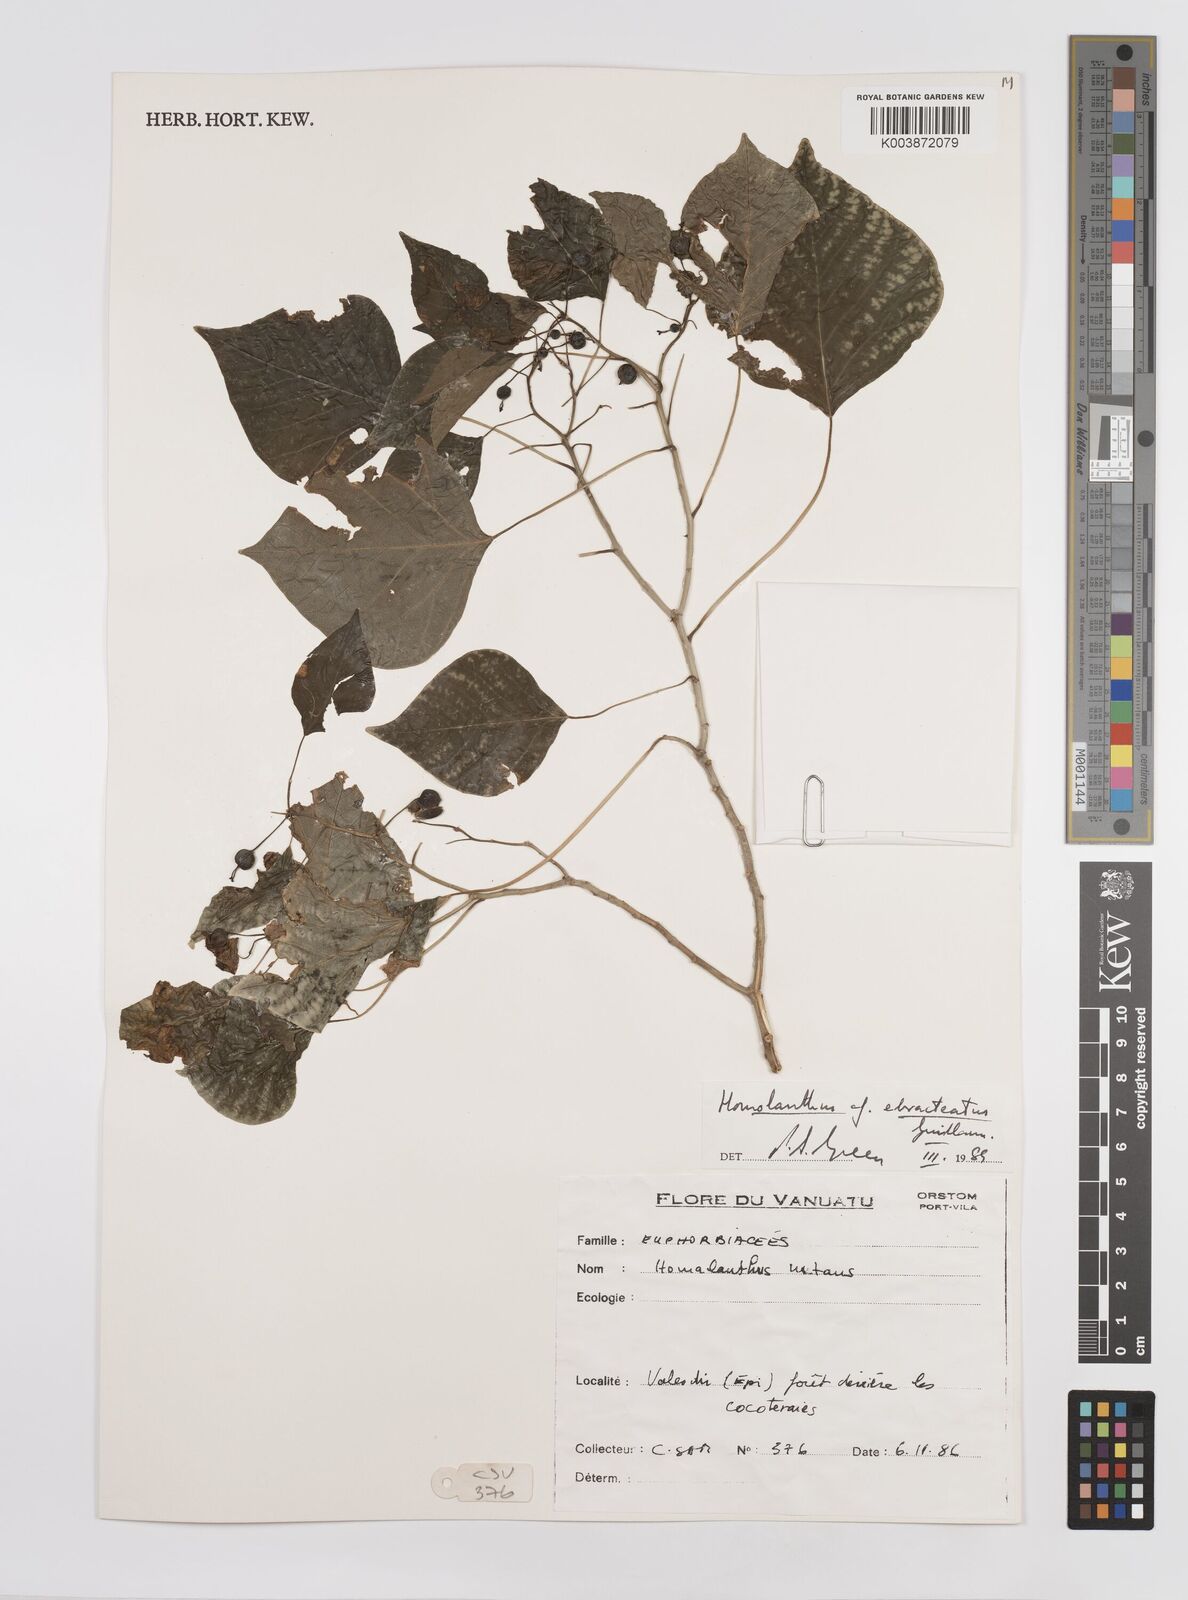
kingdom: Plantae
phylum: Tracheophyta
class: Magnoliopsida
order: Malpighiales
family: Euphorbiaceae
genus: Homalanthus
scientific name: Homalanthus ebracteatua
